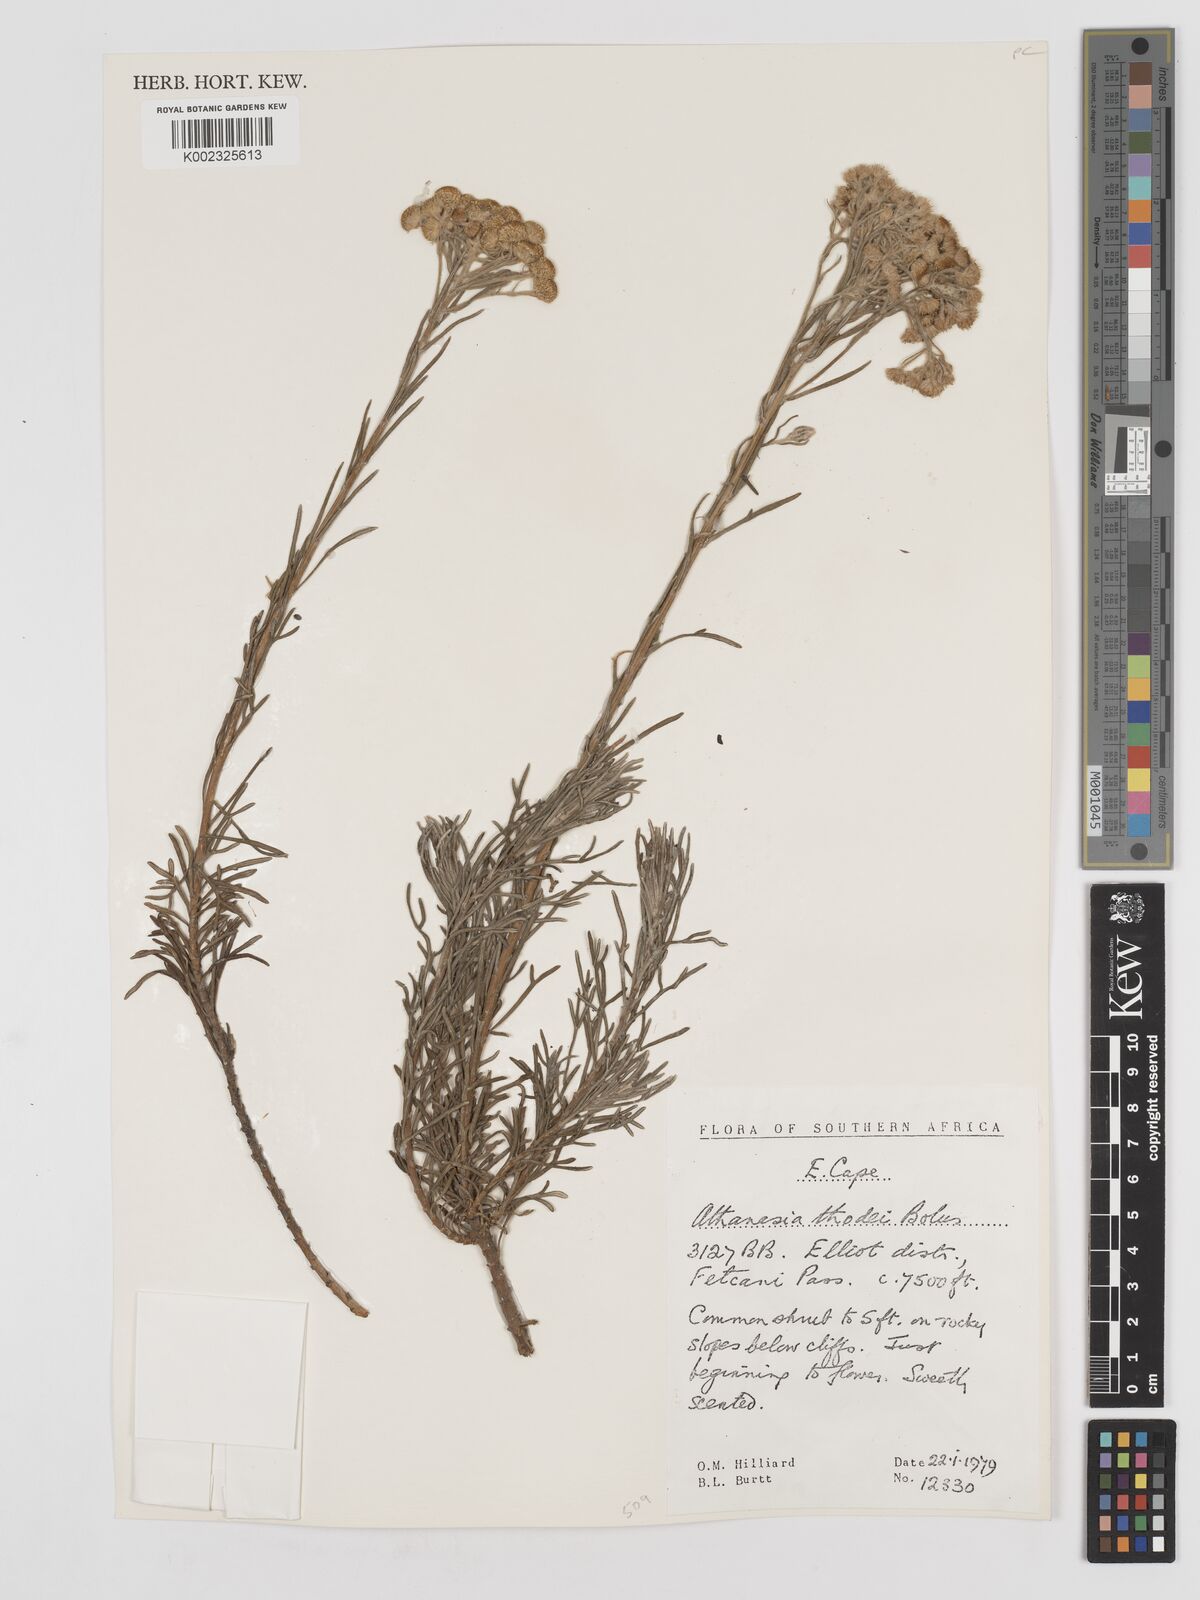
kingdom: Plantae
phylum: Tracheophyta
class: Magnoliopsida
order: Asterales
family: Asteraceae
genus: Inulanthera
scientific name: Inulanthera thodei
